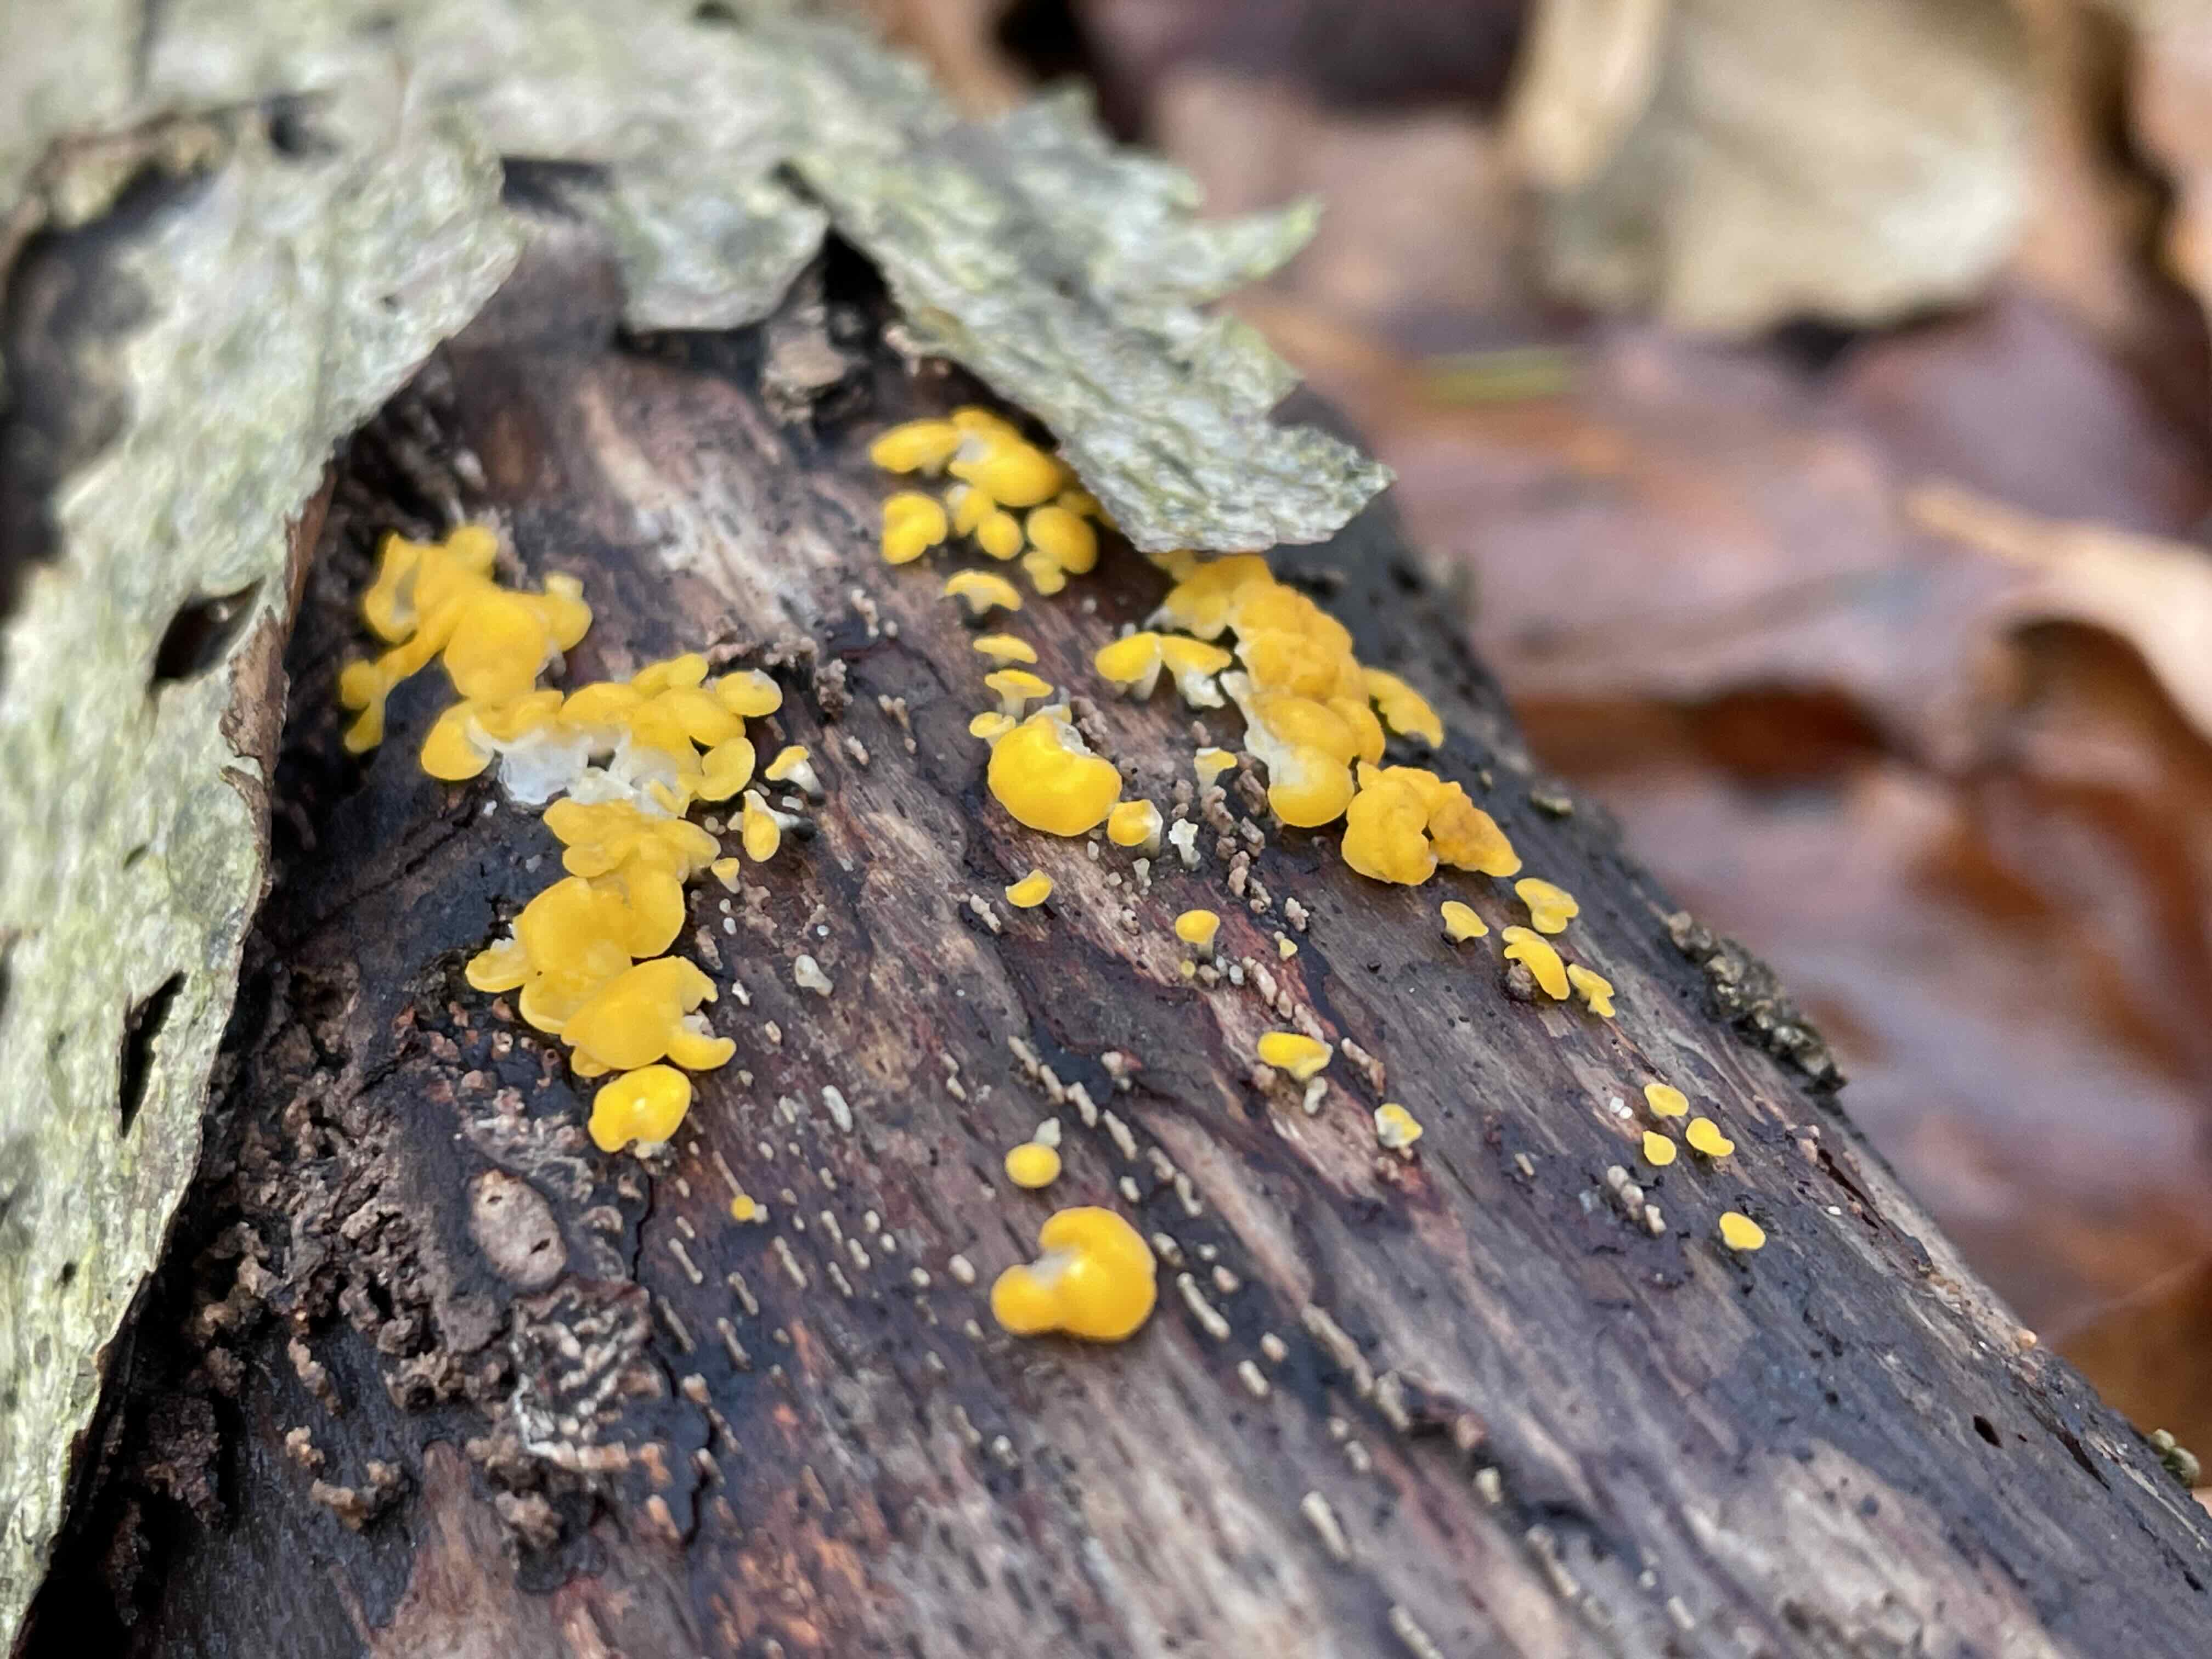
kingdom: Fungi
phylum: Ascomycota
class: Leotiomycetes
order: Helotiales
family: Pezizellaceae
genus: Calycina
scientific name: Calycina citrina
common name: almindelig gulskive
